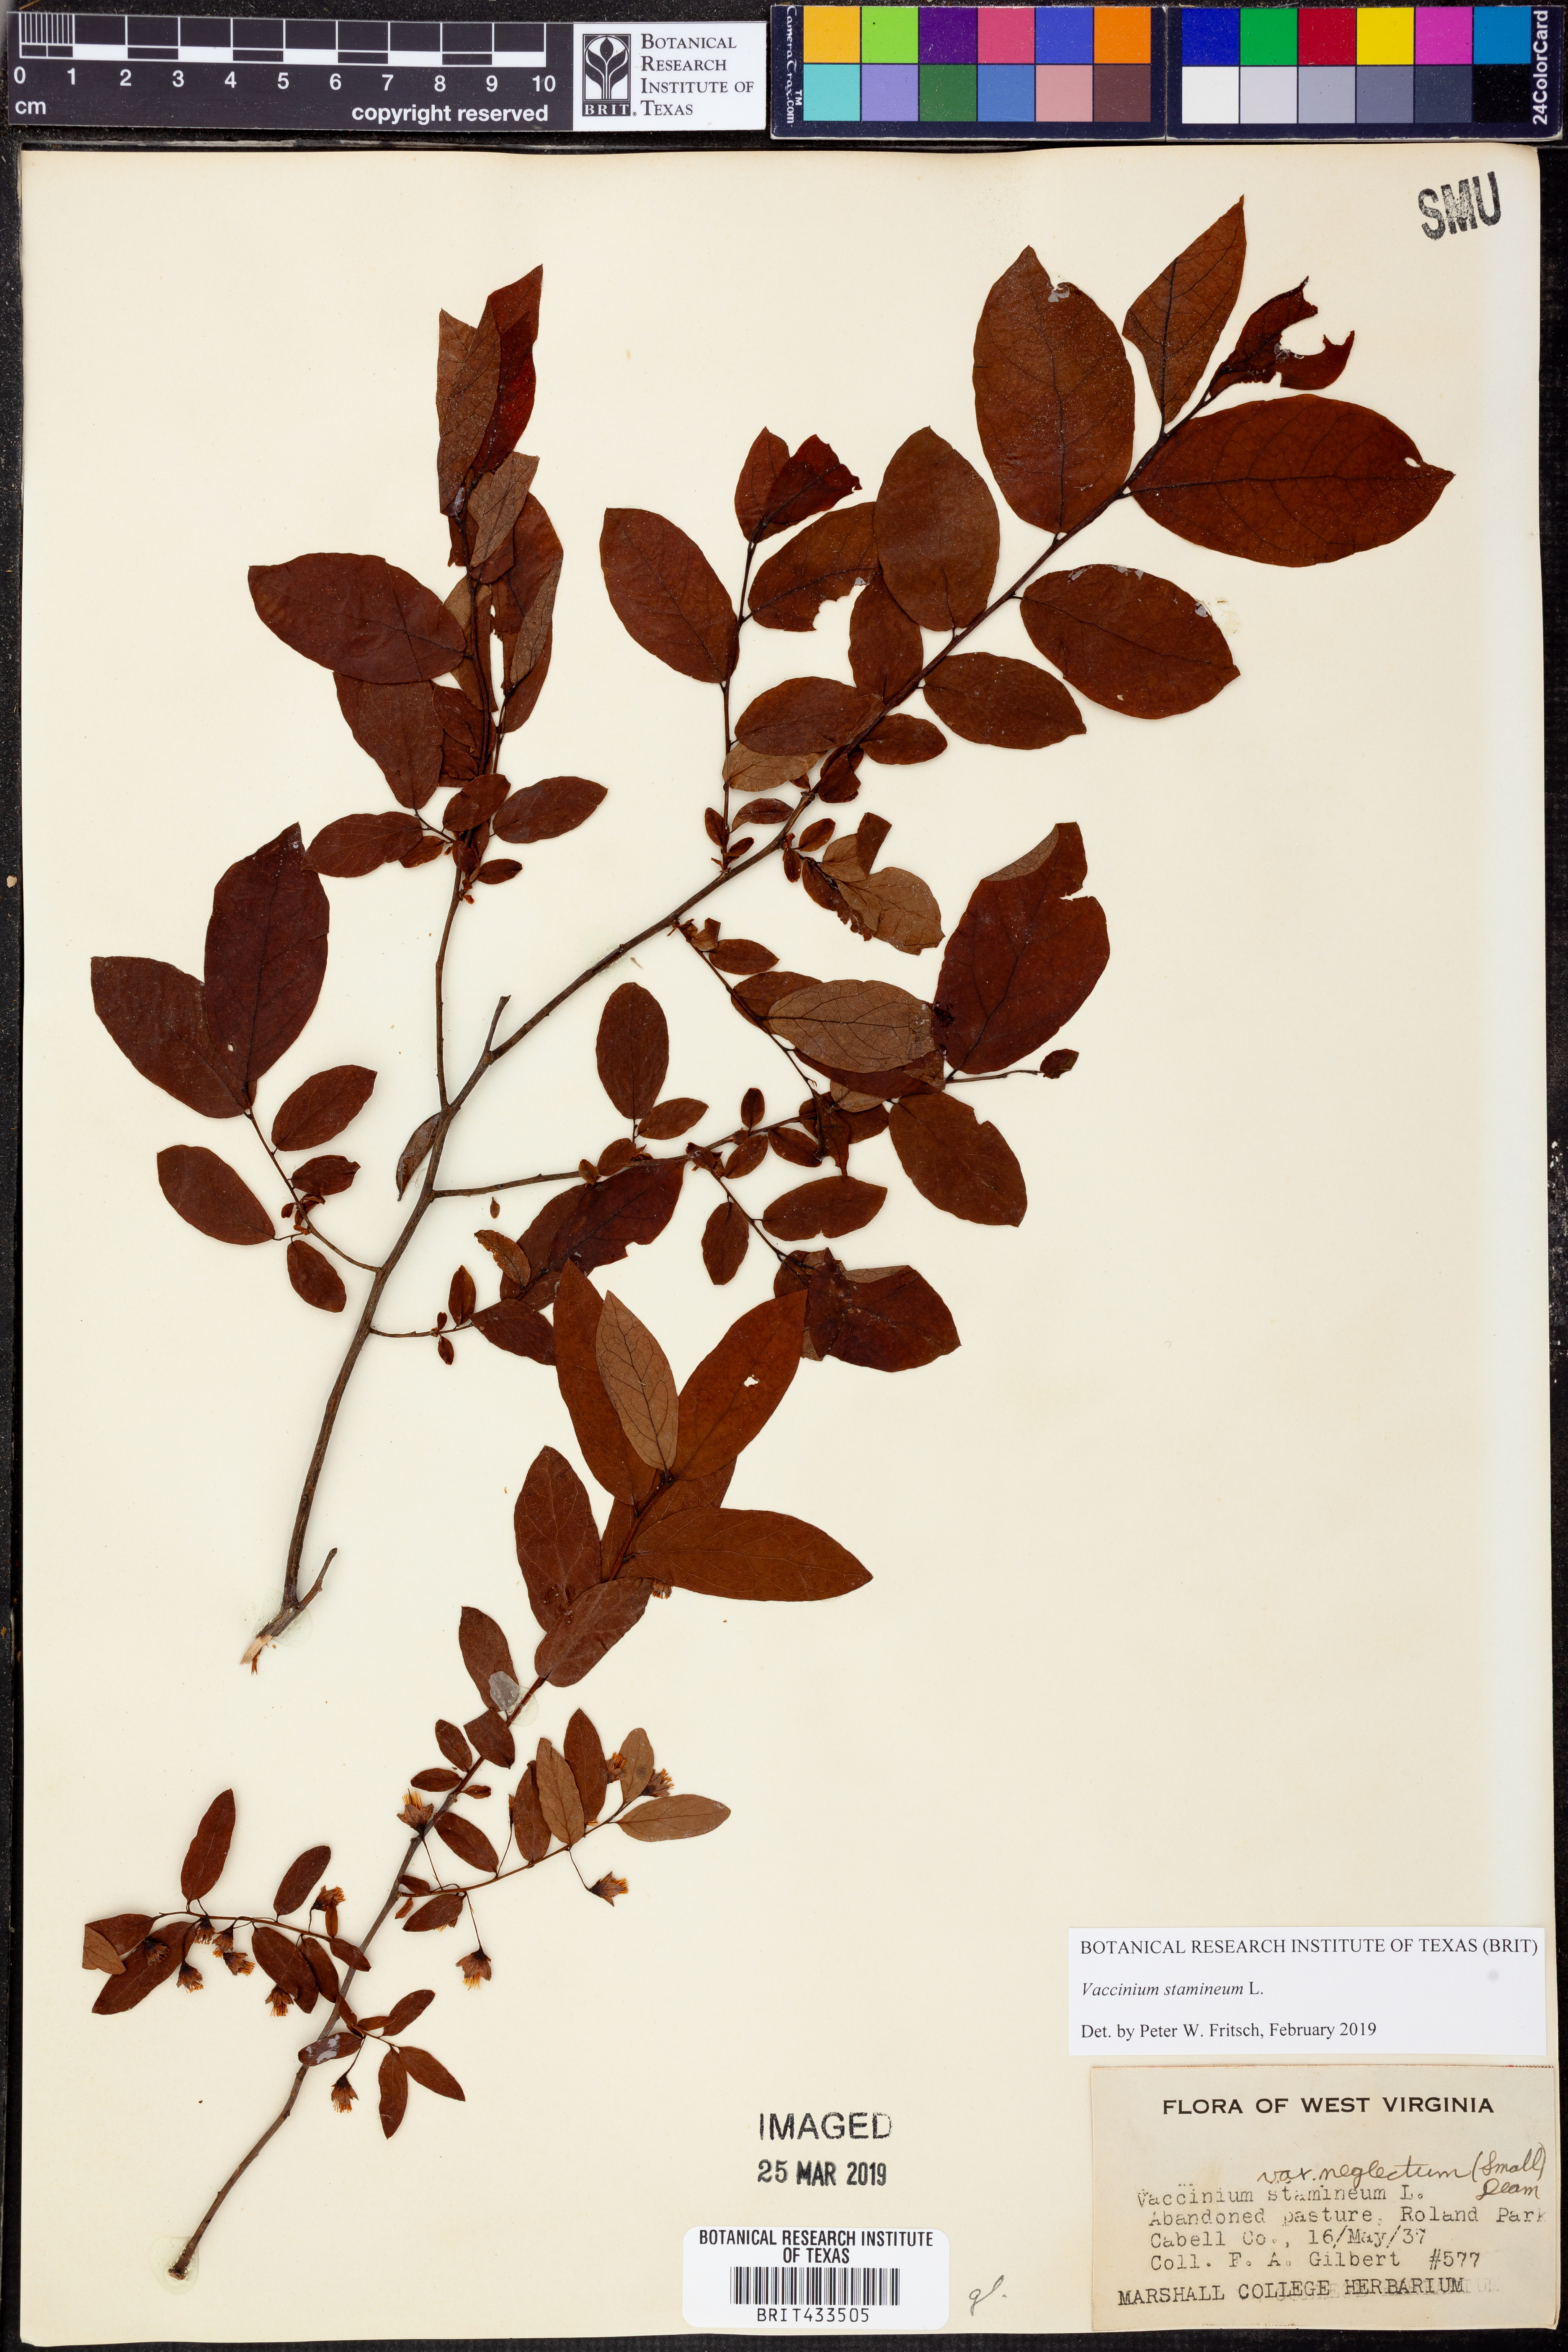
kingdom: Plantae
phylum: Tracheophyta
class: Magnoliopsida
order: Ericales
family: Ericaceae
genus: Vaccinium
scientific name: Vaccinium stamineum
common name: Deerberry
